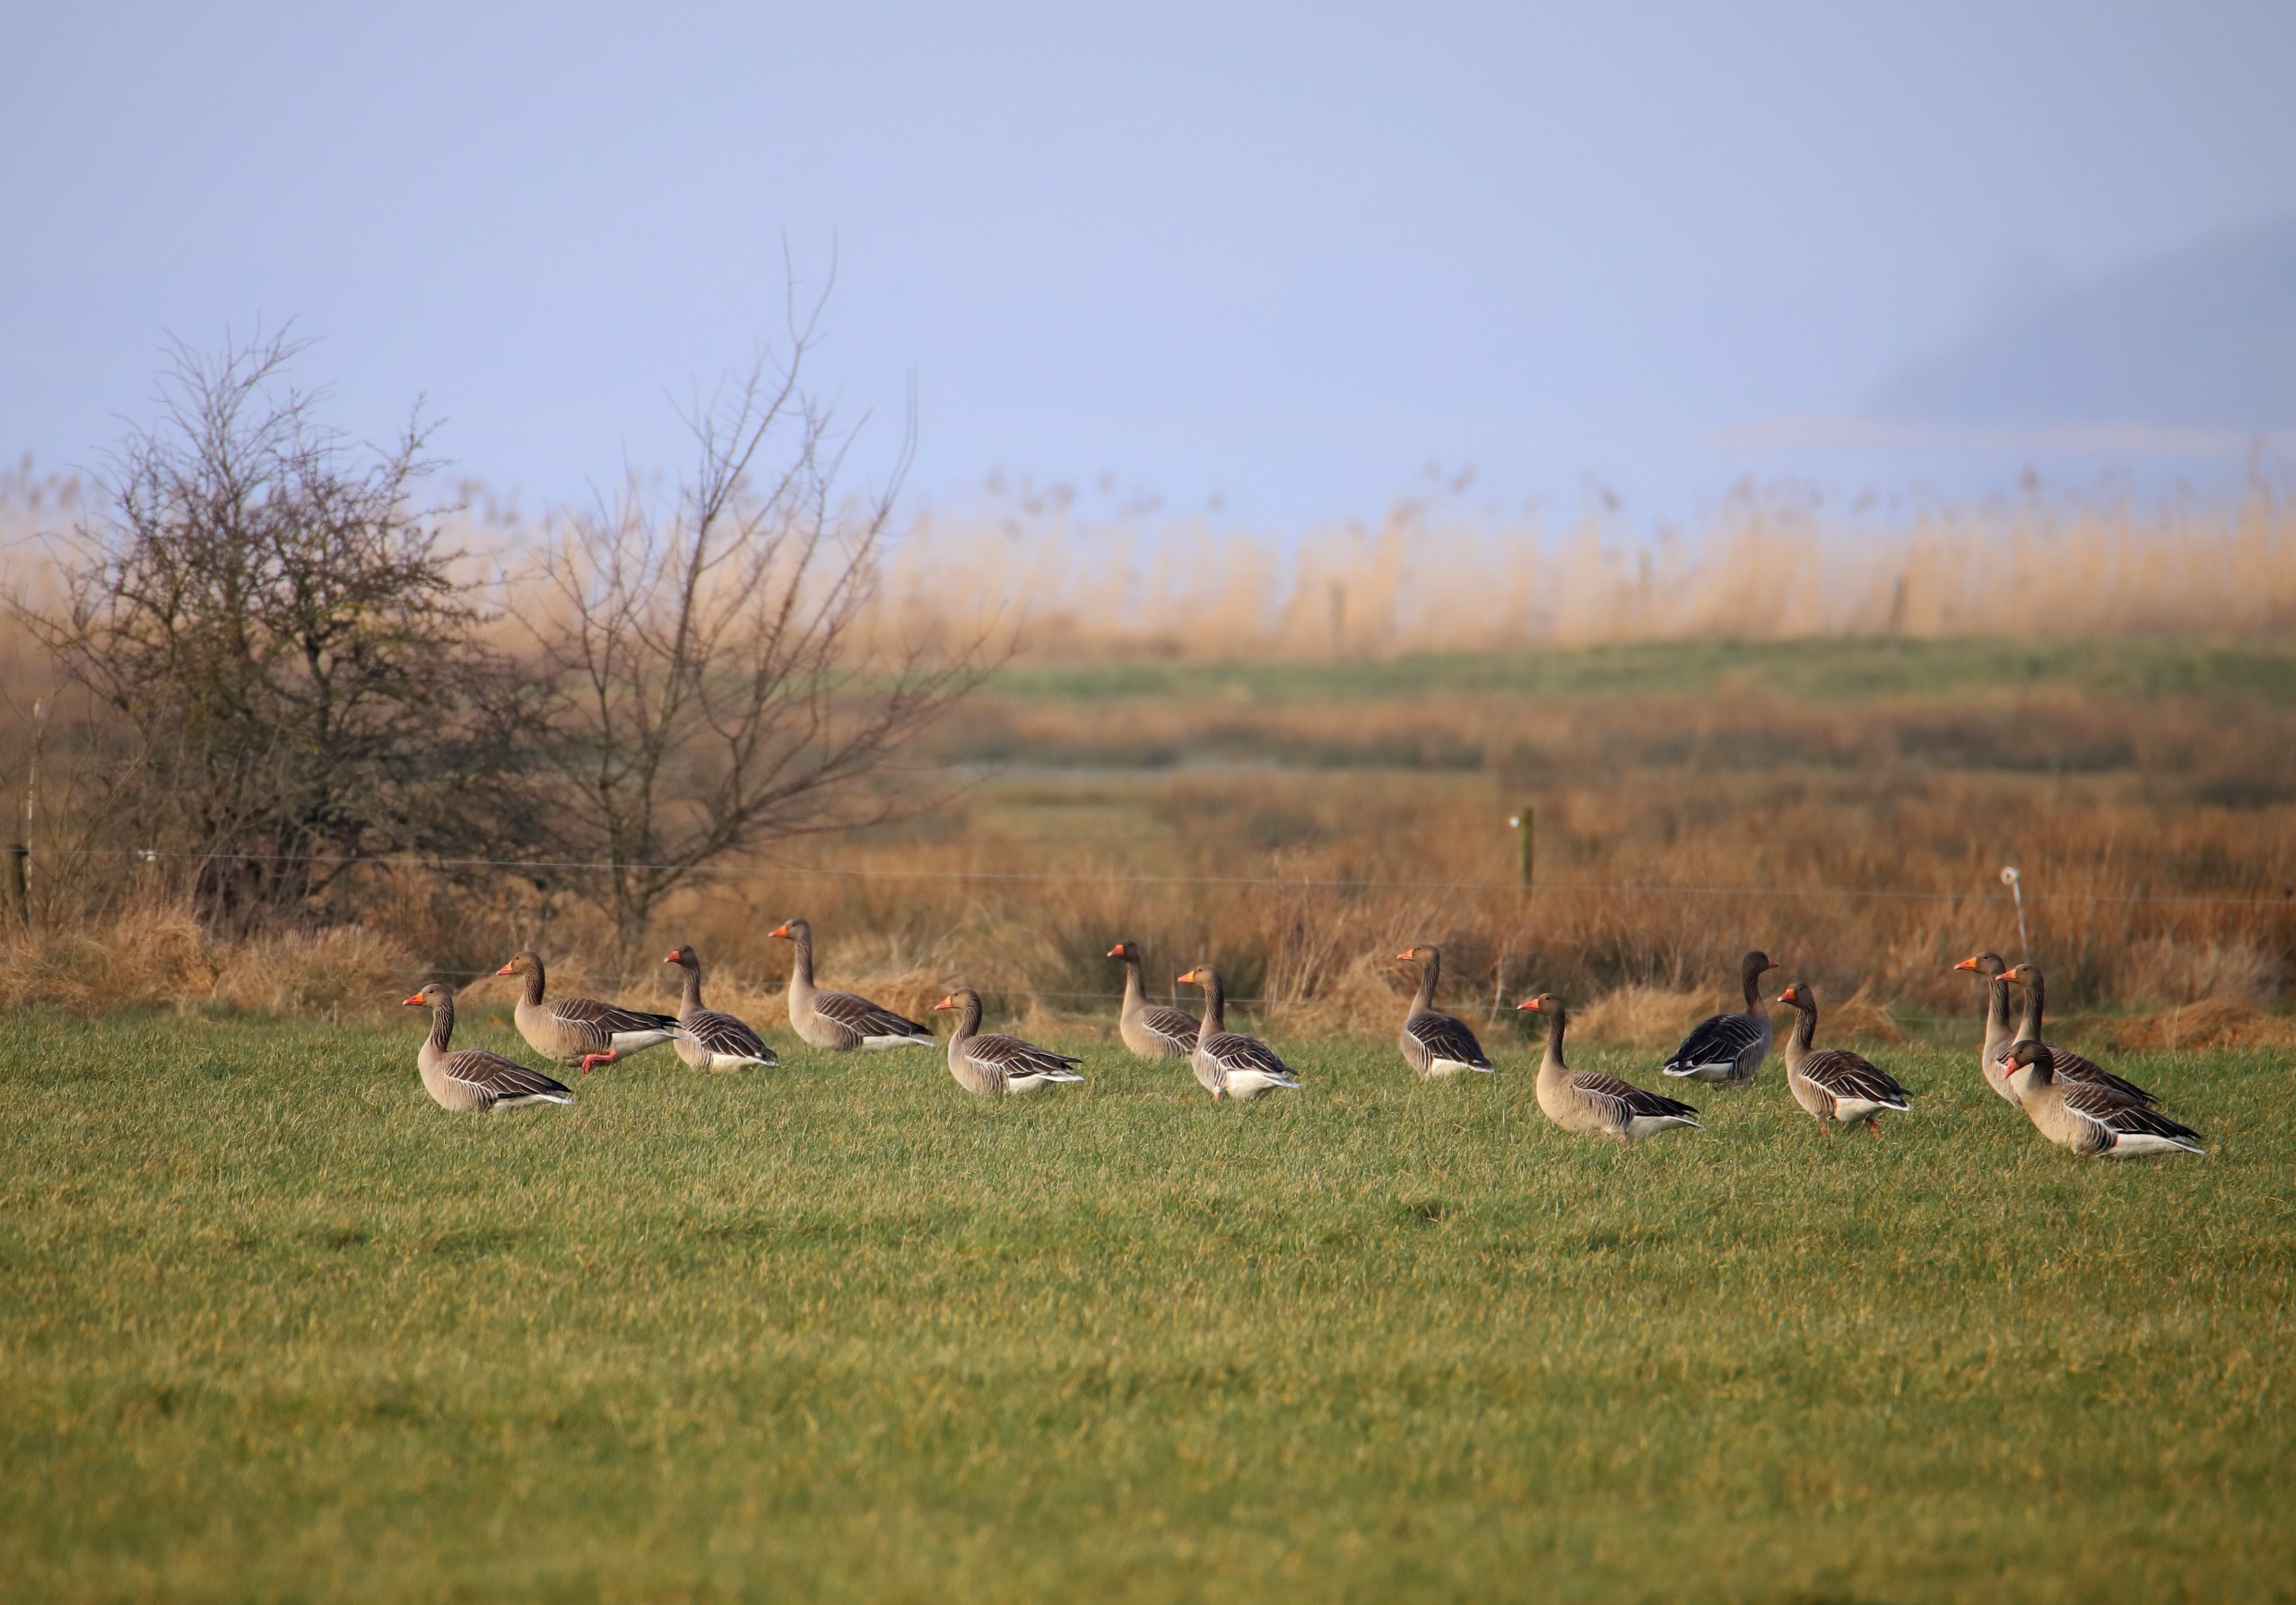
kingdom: Animalia
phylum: Chordata
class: Aves
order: Anseriformes
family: Anatidae
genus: Anser
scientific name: Anser anser
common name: Grågås
